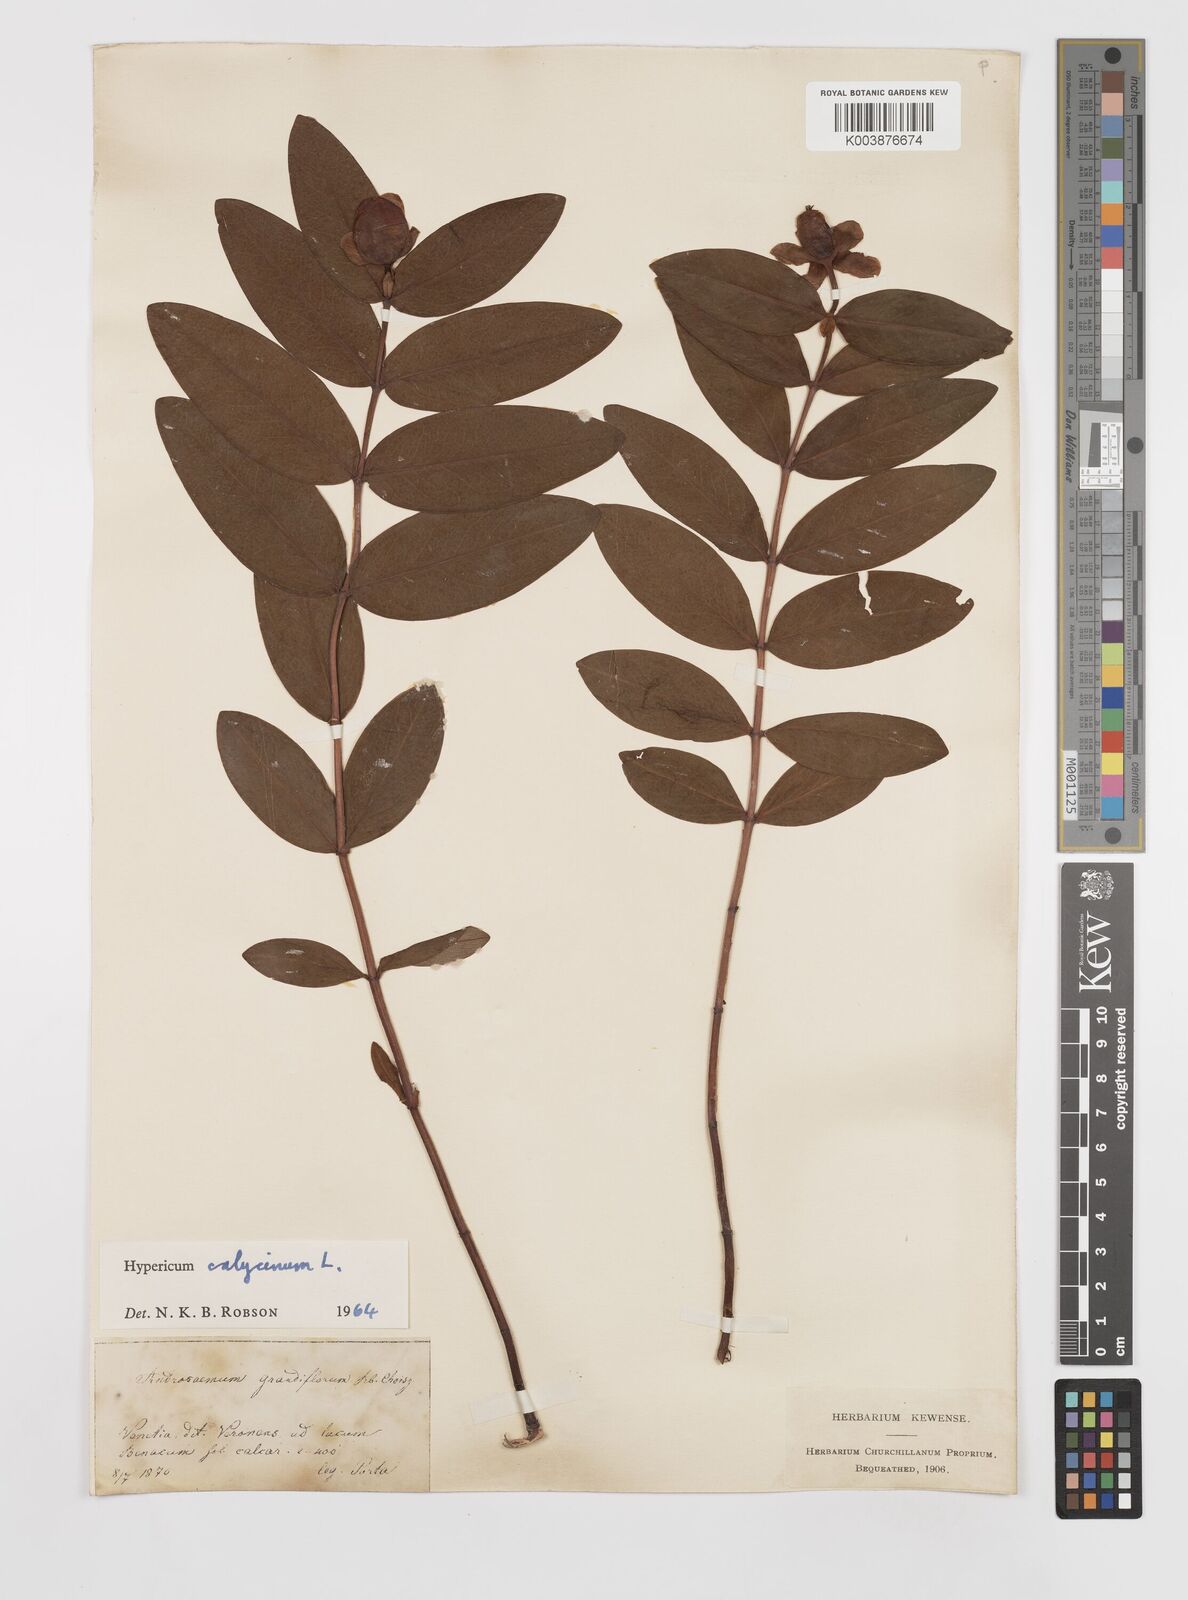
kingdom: Plantae
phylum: Tracheophyta
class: Magnoliopsida
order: Malpighiales
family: Hypericaceae
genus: Hypericum
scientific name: Hypericum calycinum
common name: Rose-of-sharon
